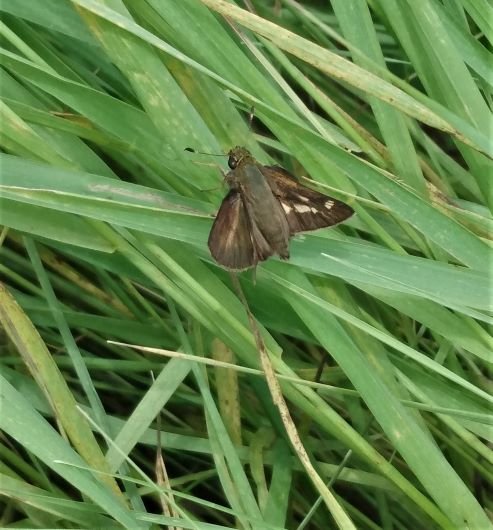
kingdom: Animalia
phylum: Arthropoda
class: Insecta
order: Lepidoptera
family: Hesperiidae
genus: Vernia
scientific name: Vernia verna
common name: Little Glassywing
